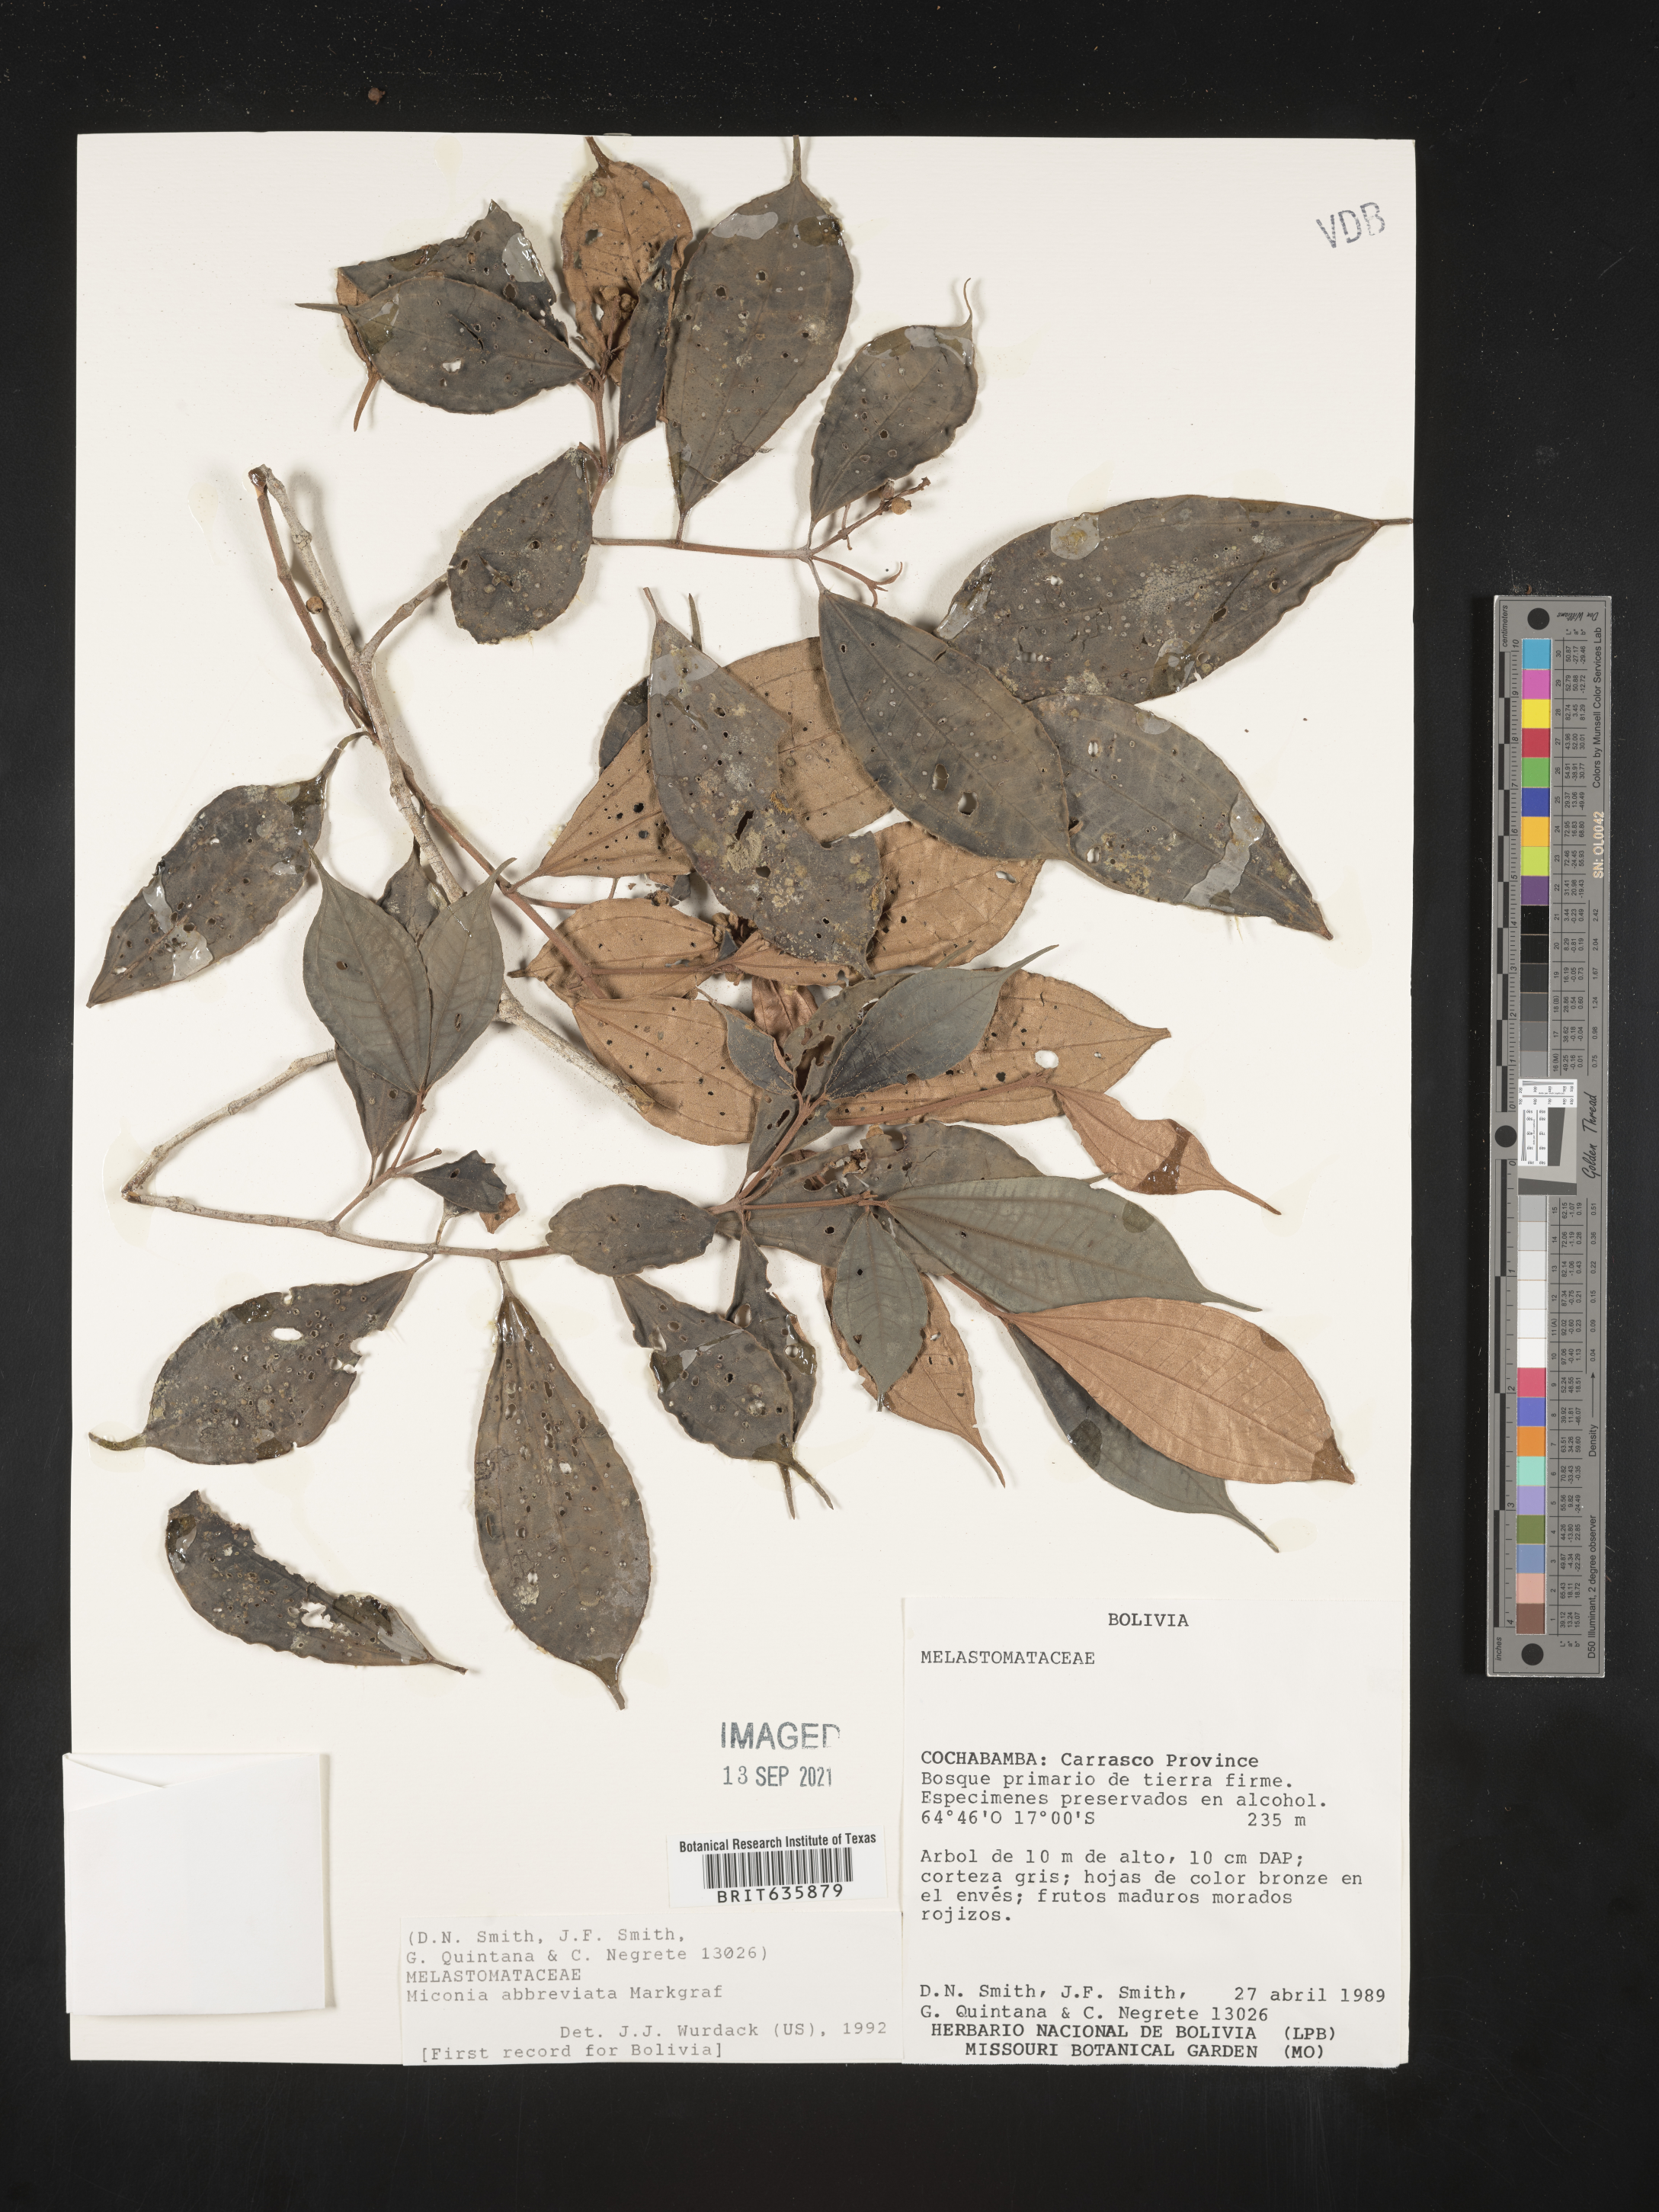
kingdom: Plantae
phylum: Tracheophyta
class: Magnoliopsida
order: Myrtales
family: Melastomataceae
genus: Miconia
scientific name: Miconia
